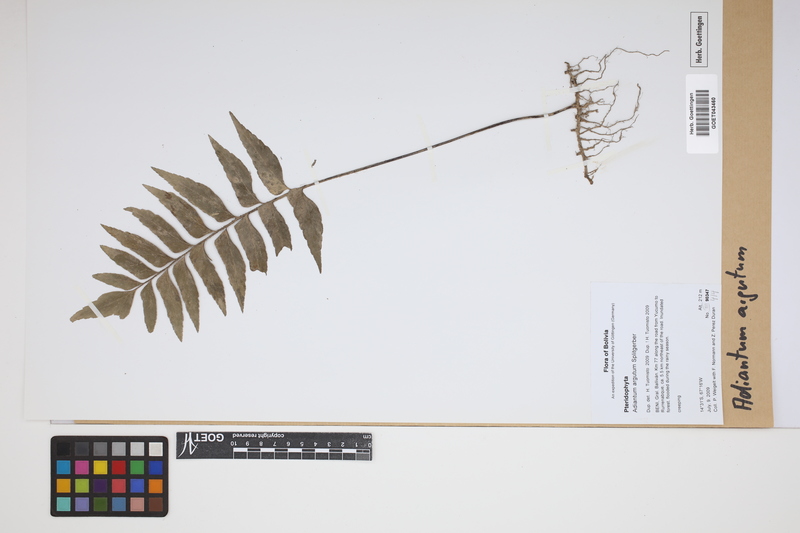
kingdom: Plantae
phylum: Tracheophyta
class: Polypodiopsida
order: Polypodiales
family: Pteridaceae
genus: Adiantum
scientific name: Adiantum argutum
